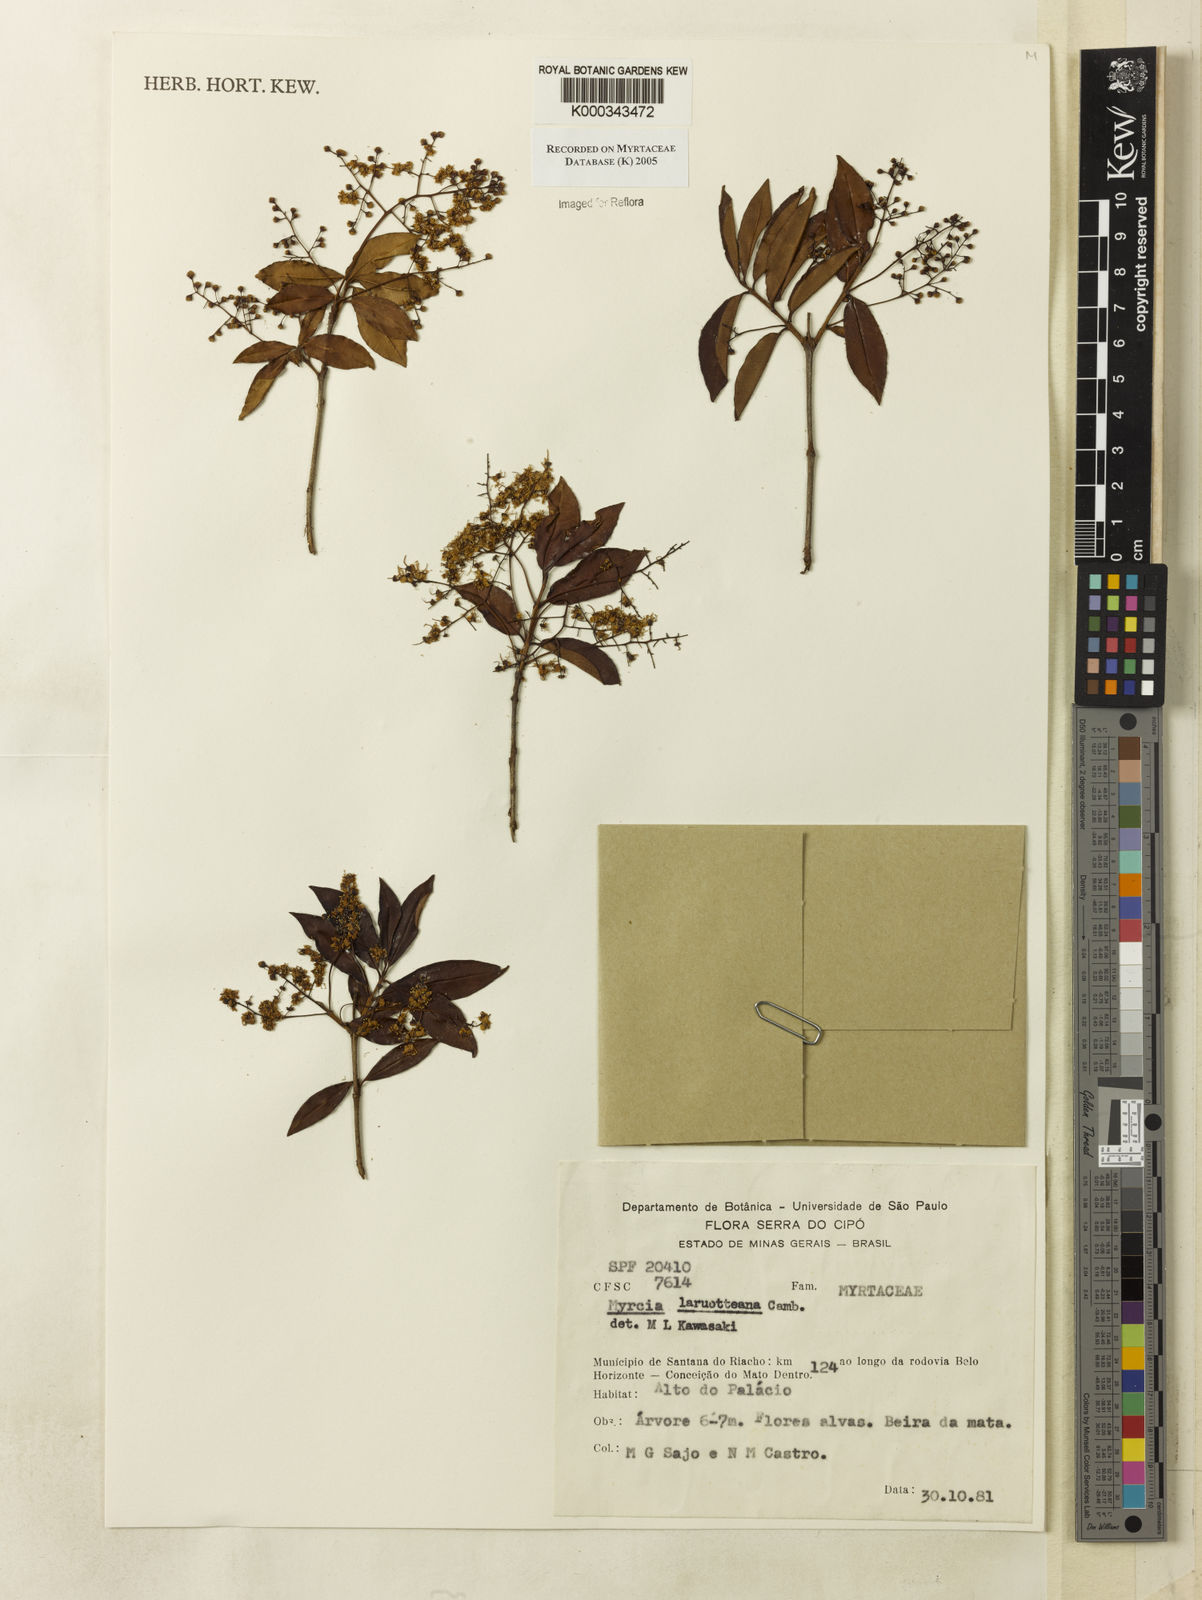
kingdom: Plantae
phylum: Tracheophyta
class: Magnoliopsida
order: Myrtales
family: Myrtaceae
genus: Myrcia
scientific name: Myrcia laruotteana
